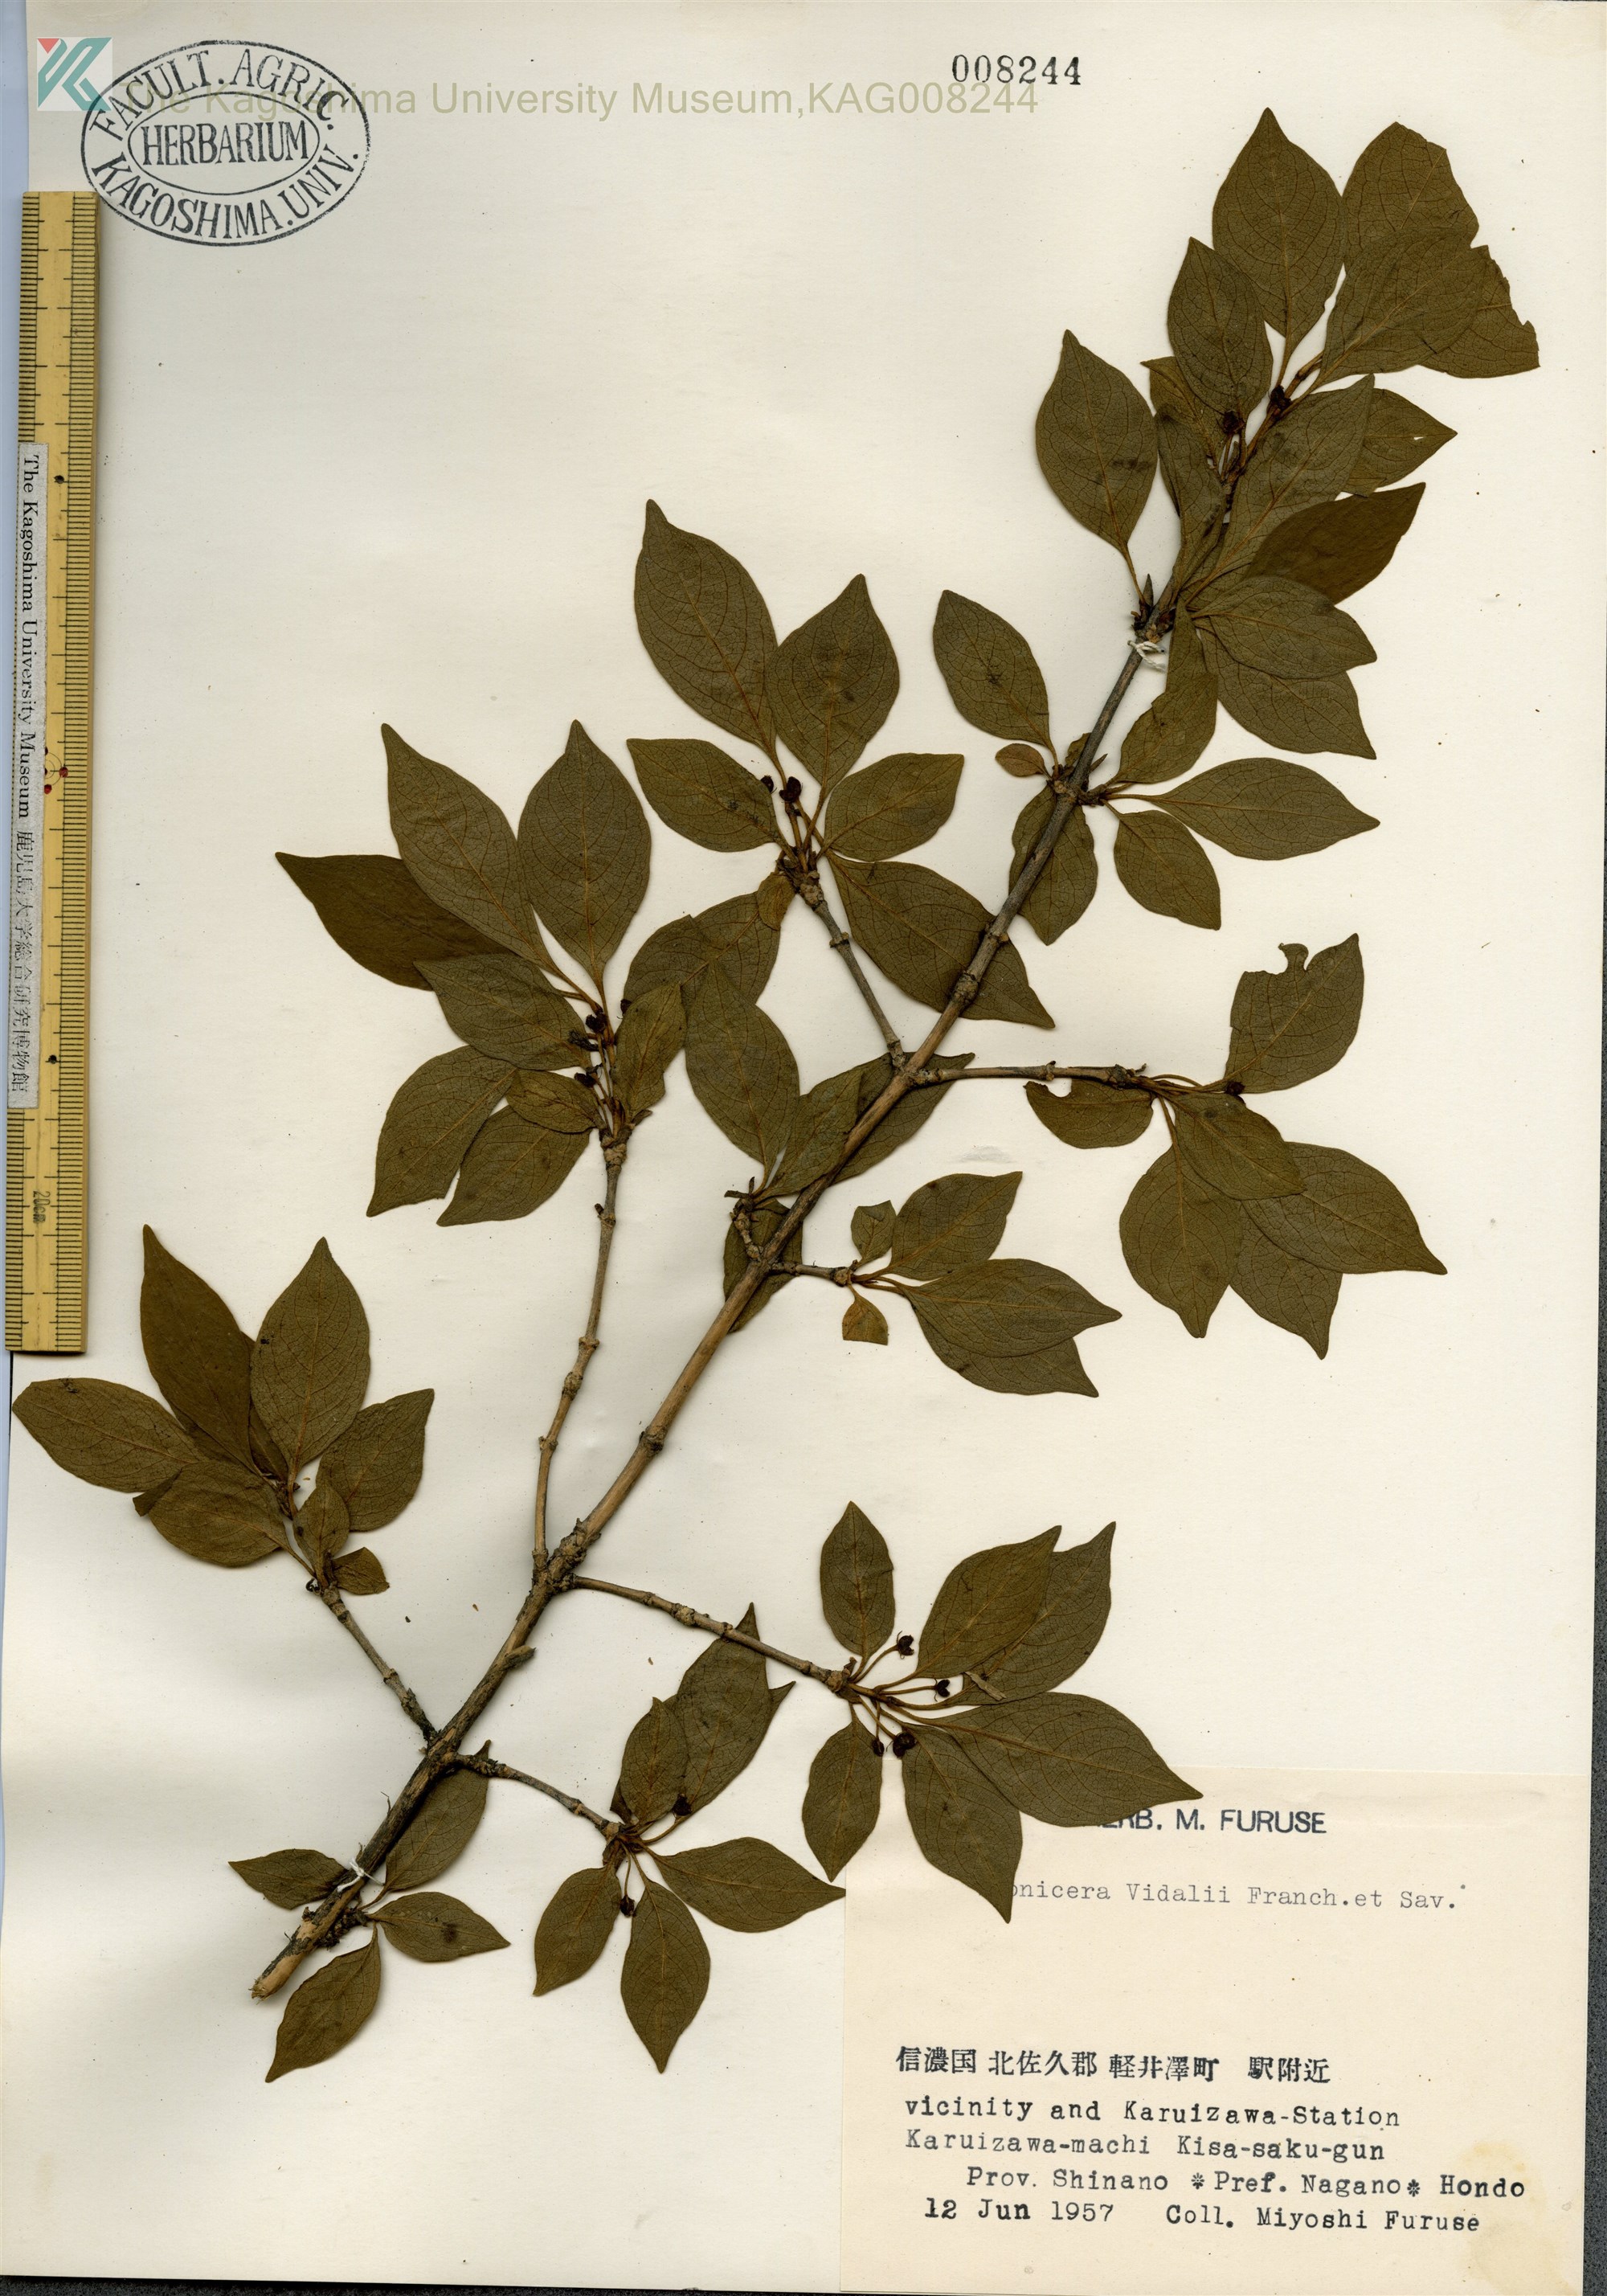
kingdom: Plantae
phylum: Tracheophyta
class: Magnoliopsida
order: Dipsacales
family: Caprifoliaceae
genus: Lonicera
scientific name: Lonicera vidalii
